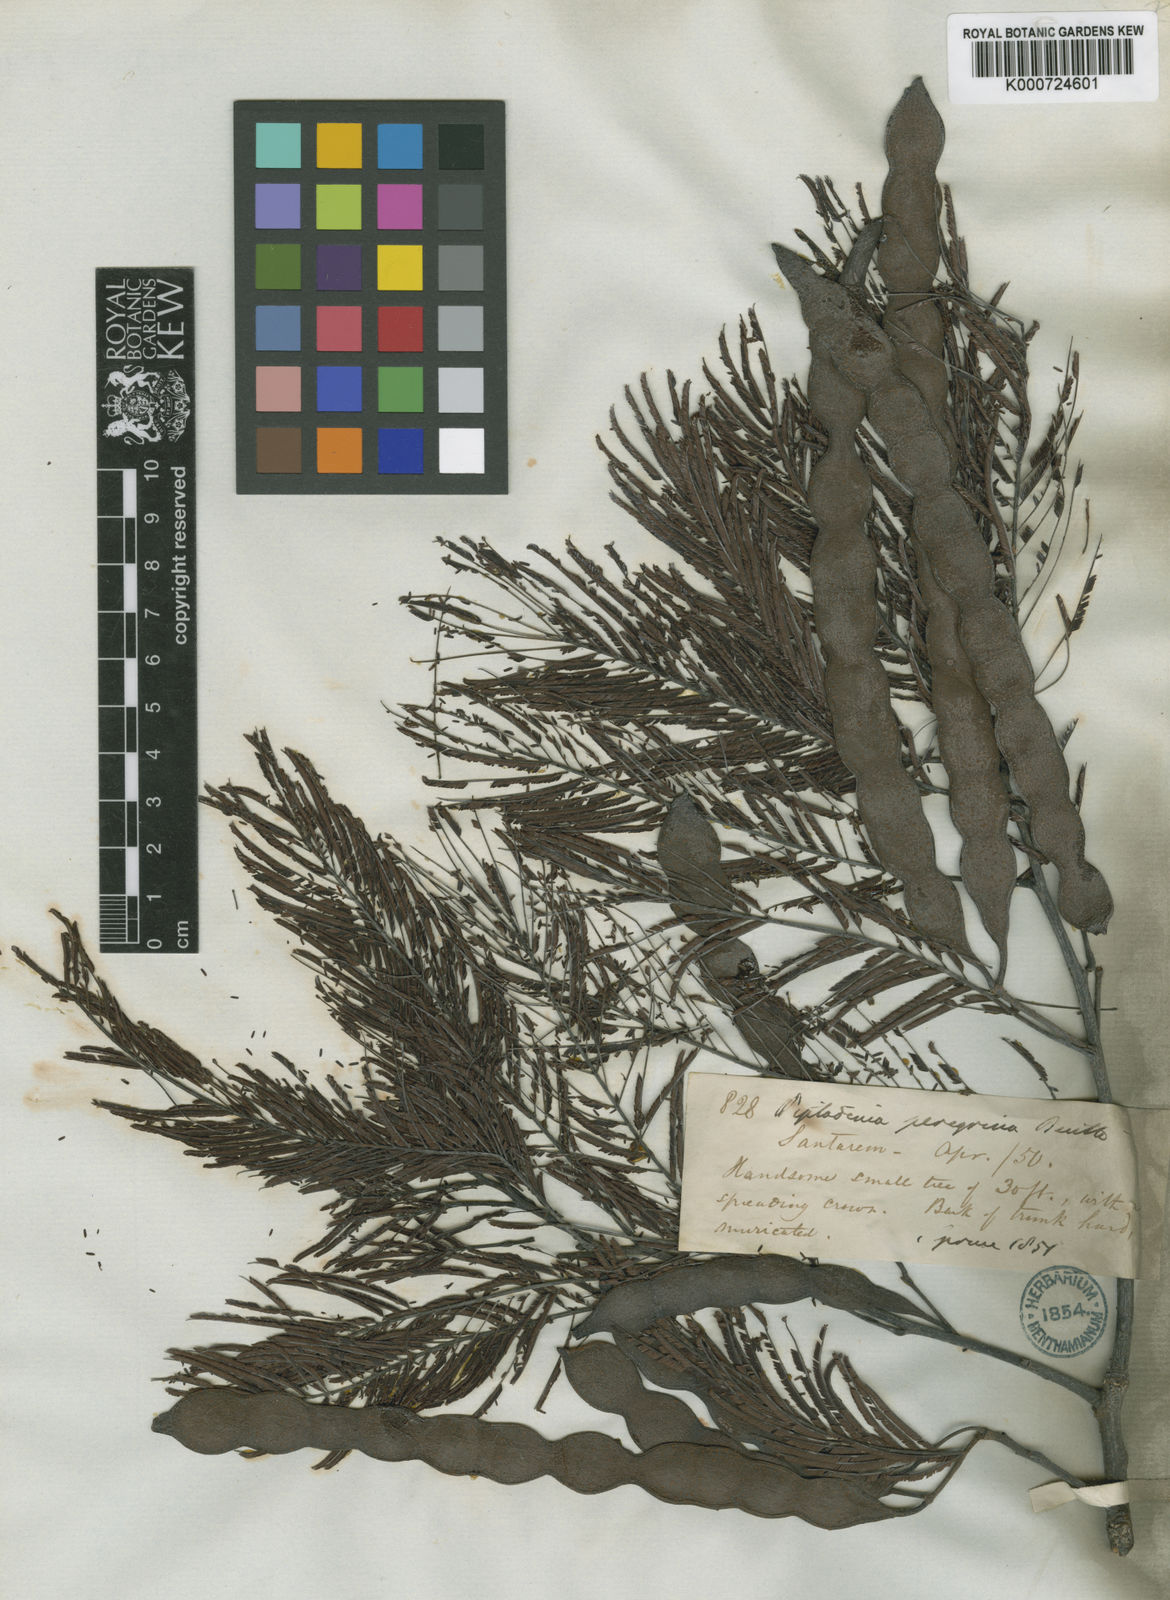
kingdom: Plantae
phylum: Tracheophyta
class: Magnoliopsida
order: Fabales
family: Fabaceae
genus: Anadenanthera
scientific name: Anadenanthera peregrina
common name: Cohoba
